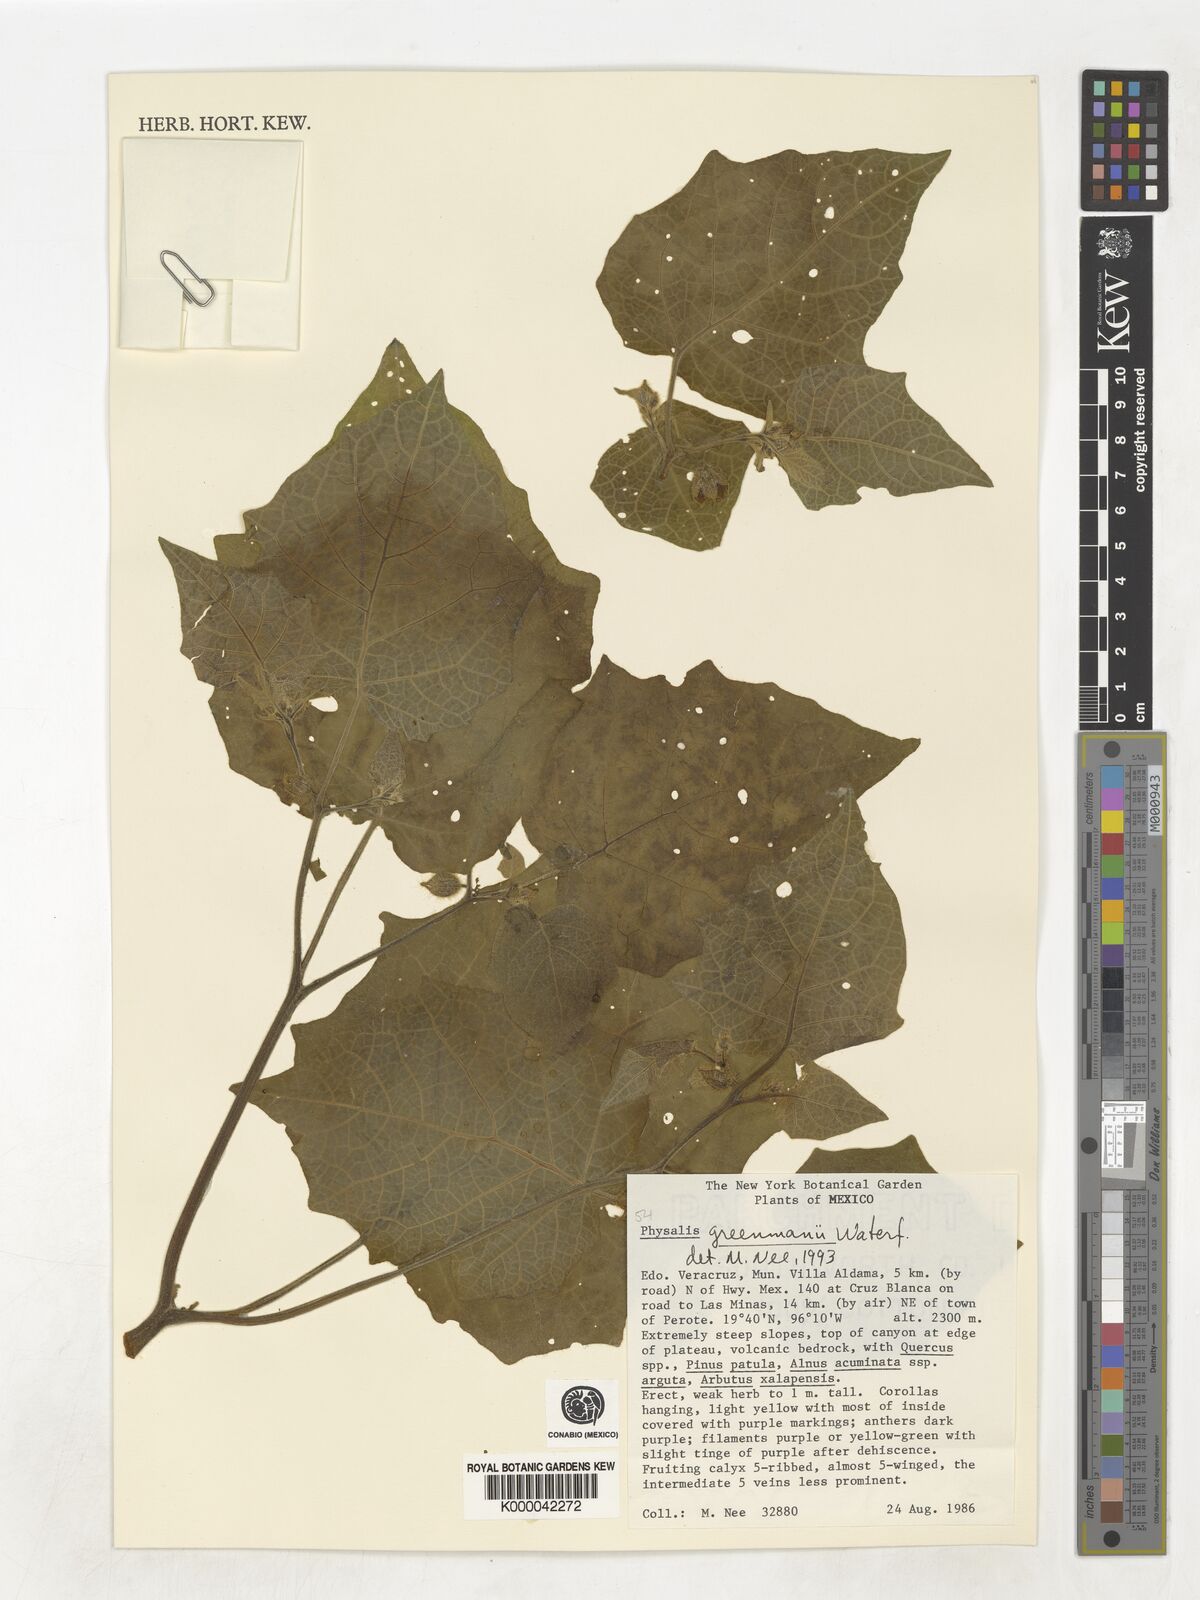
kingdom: Plantae
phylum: Tracheophyta
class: Magnoliopsida
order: Solanales
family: Solanaceae
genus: Physalis
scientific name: Physalis greenmanii
